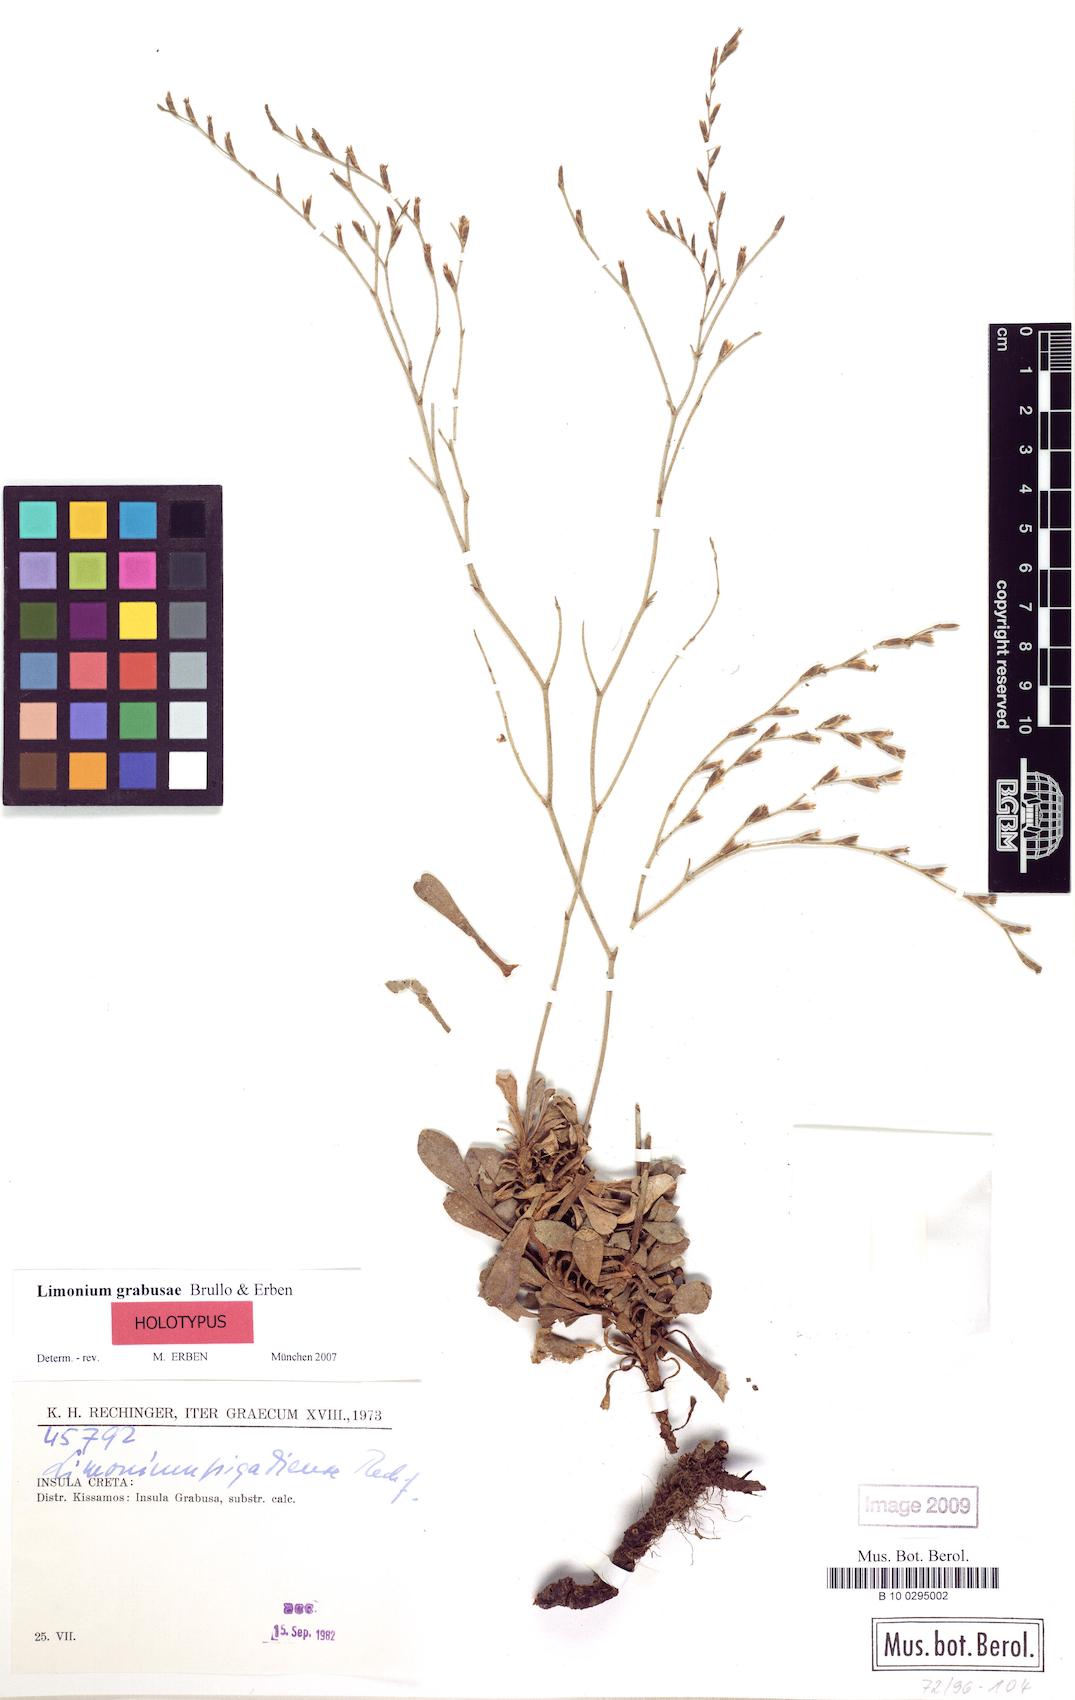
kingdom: Plantae
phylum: Tracheophyta
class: Magnoliopsida
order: Caryophyllales
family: Plumbaginaceae
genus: Limonium
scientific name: Limonium grabusae
